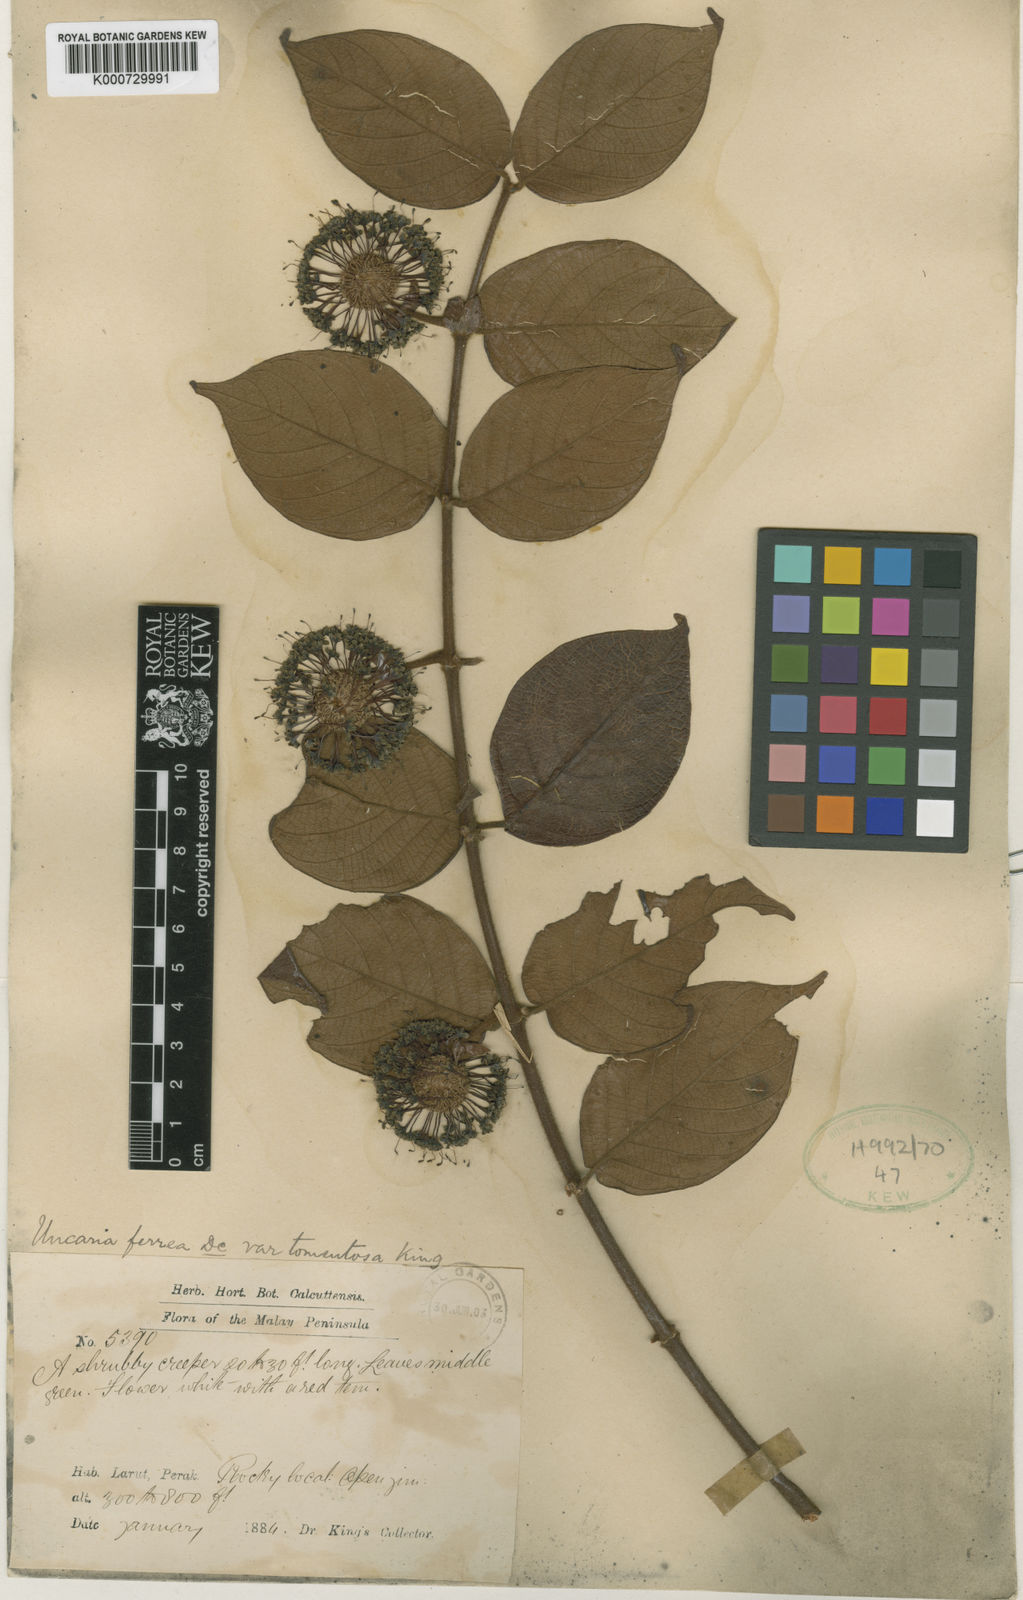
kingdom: Plantae
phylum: Tracheophyta
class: Magnoliopsida
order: Gentianales
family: Rubiaceae
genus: Uncaria
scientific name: Uncaria lanosa
